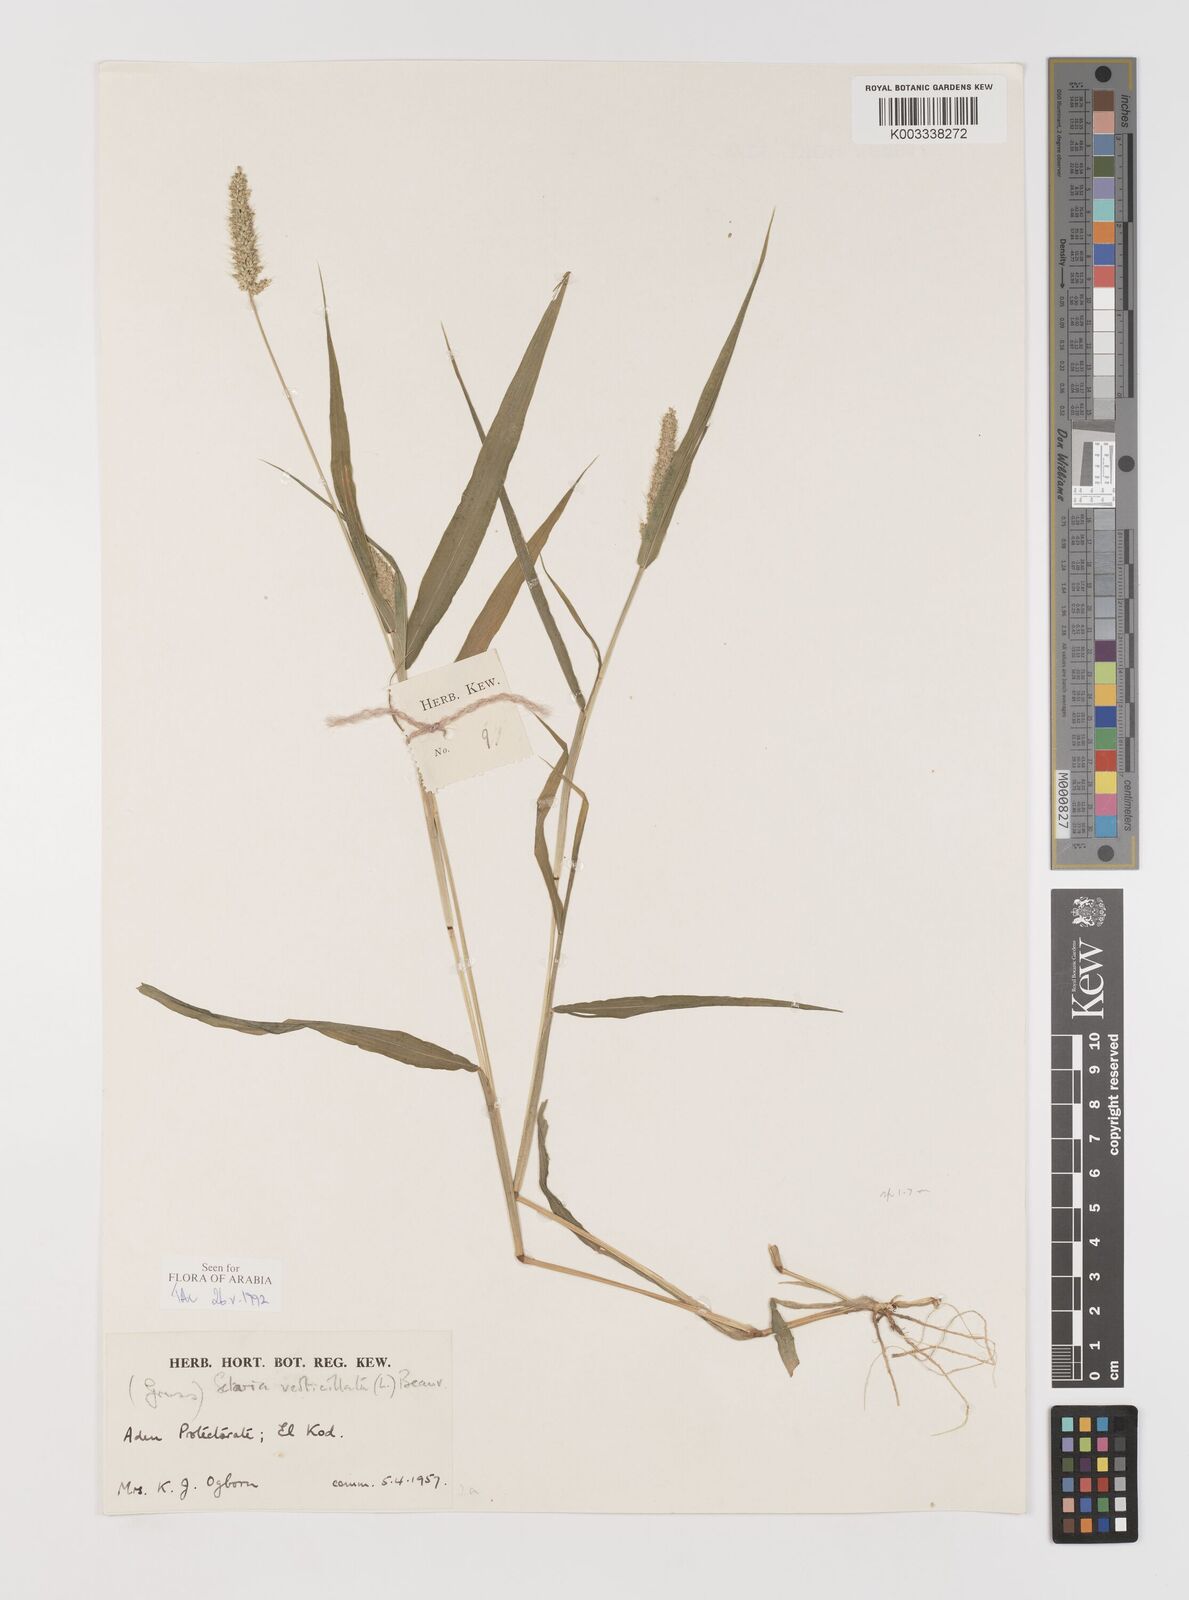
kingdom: Plantae
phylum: Tracheophyta
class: Liliopsida
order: Poales
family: Poaceae
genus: Setaria
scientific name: Setaria verticillata
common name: Hooked bristlegrass
